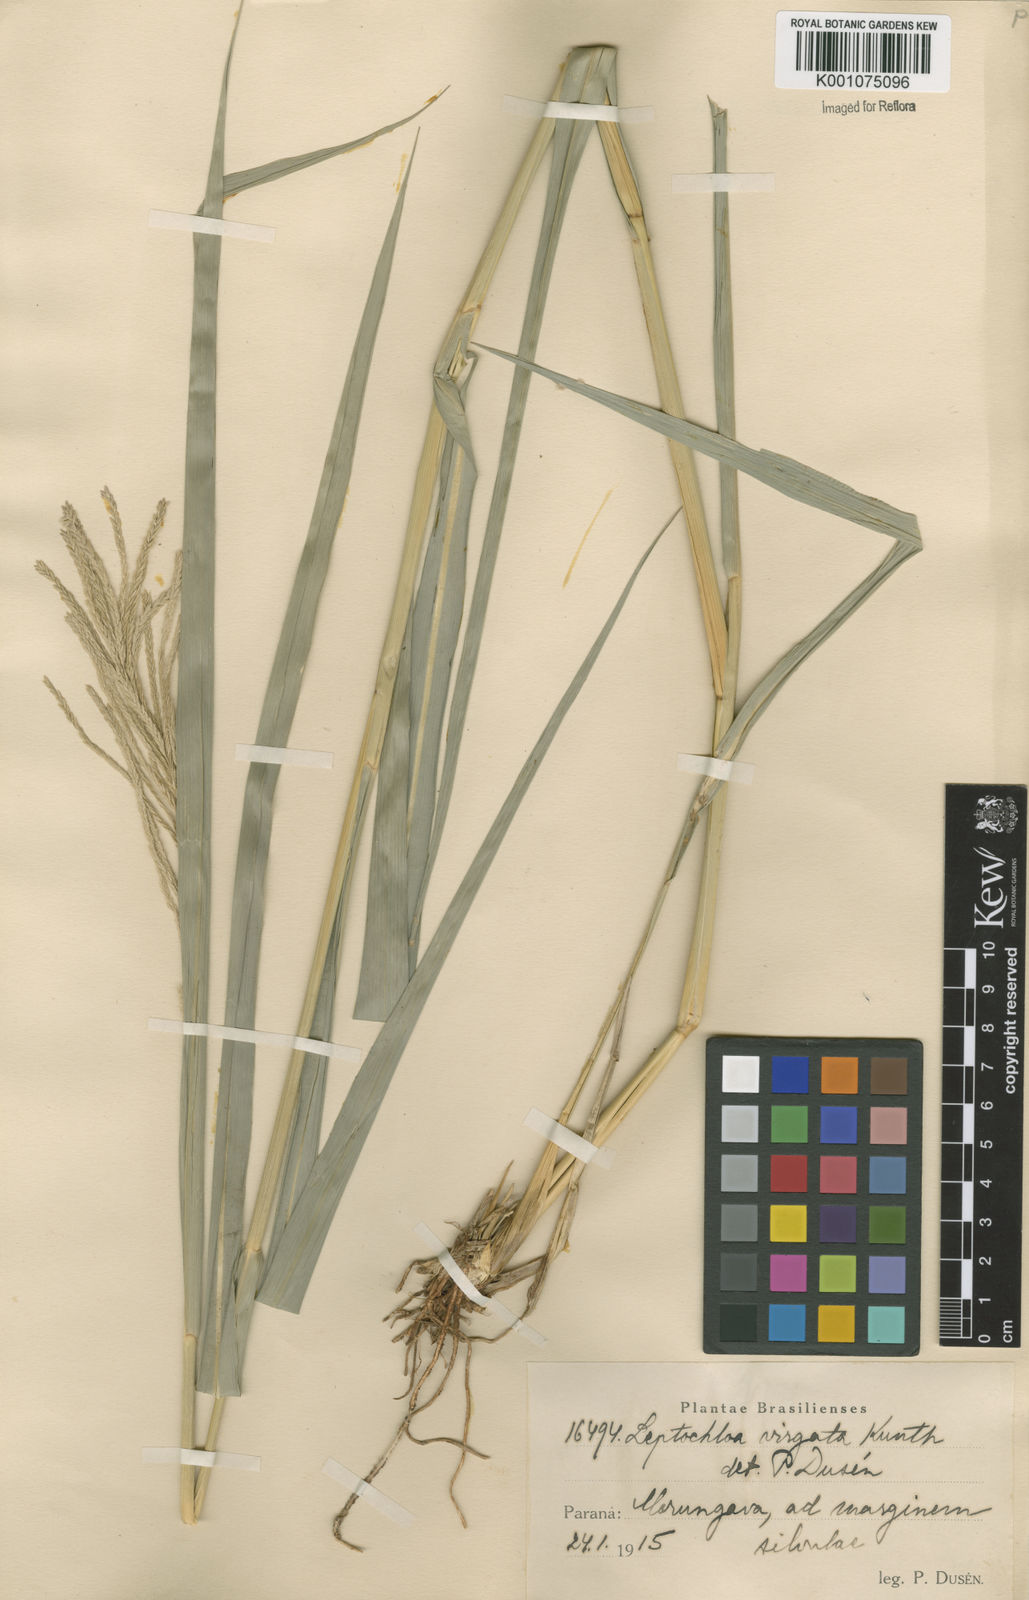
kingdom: Plantae
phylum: Tracheophyta
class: Liliopsida
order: Poales
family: Poaceae
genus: Leptochloa
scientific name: Leptochloa virgata
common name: Tropical sprangletop
